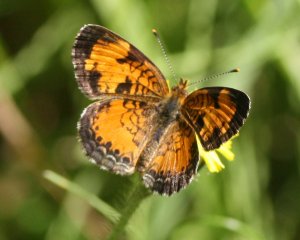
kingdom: Animalia
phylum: Arthropoda
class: Insecta
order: Lepidoptera
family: Nymphalidae
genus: Phyciodes
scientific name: Phyciodes tharos
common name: Northern Crescent
